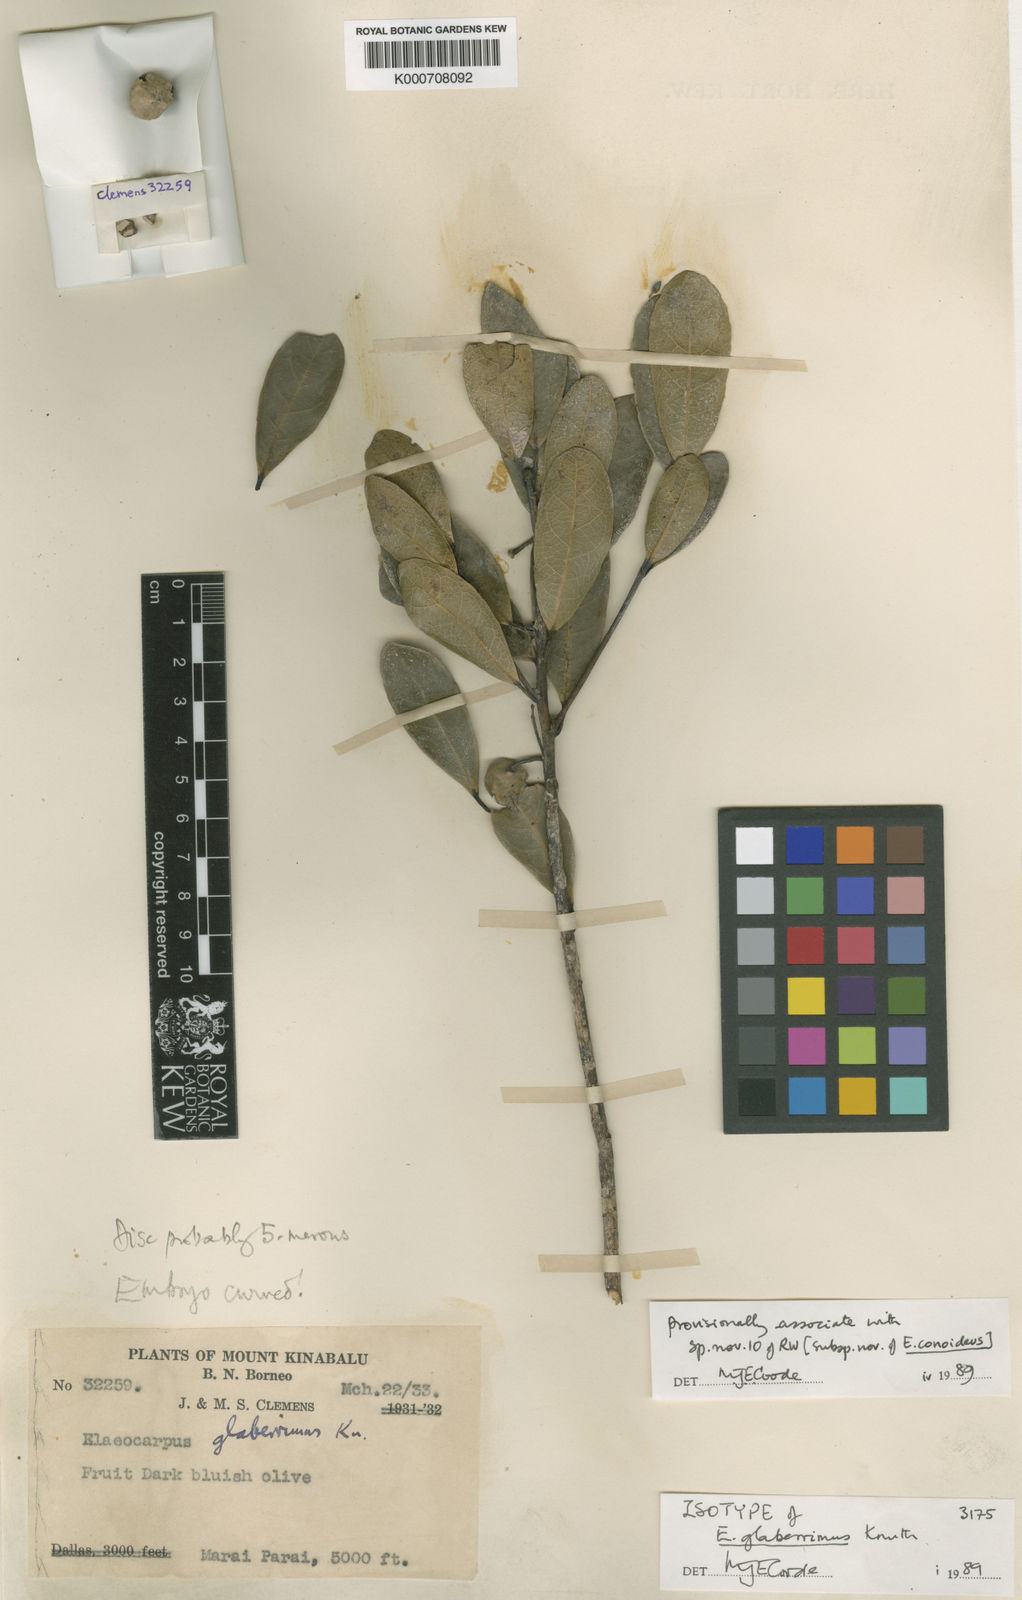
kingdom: Plantae
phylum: Tracheophyta
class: Magnoliopsida
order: Oxalidales
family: Elaeocarpaceae
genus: Elaeocarpus
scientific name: Elaeocarpus glaberrimus
